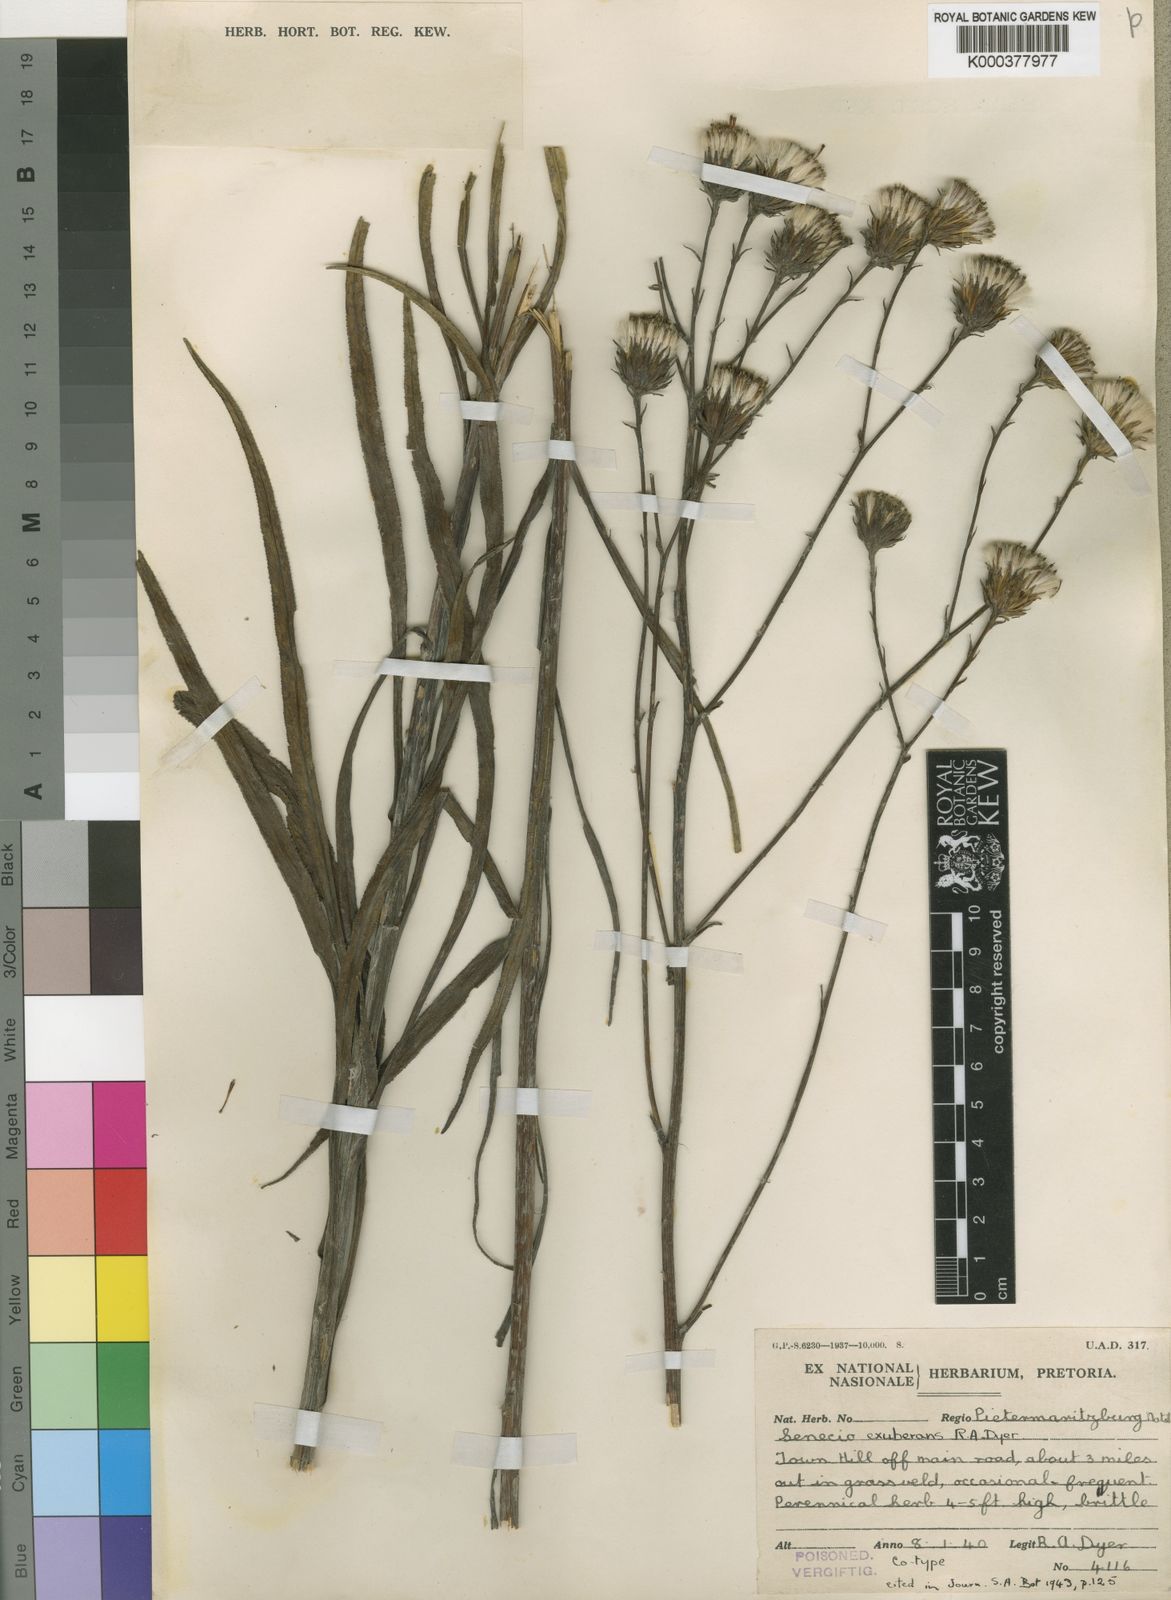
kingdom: Plantae
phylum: Tracheophyta
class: Magnoliopsida
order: Asterales
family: Asteraceae
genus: Senecio
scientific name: Senecio exuberans
